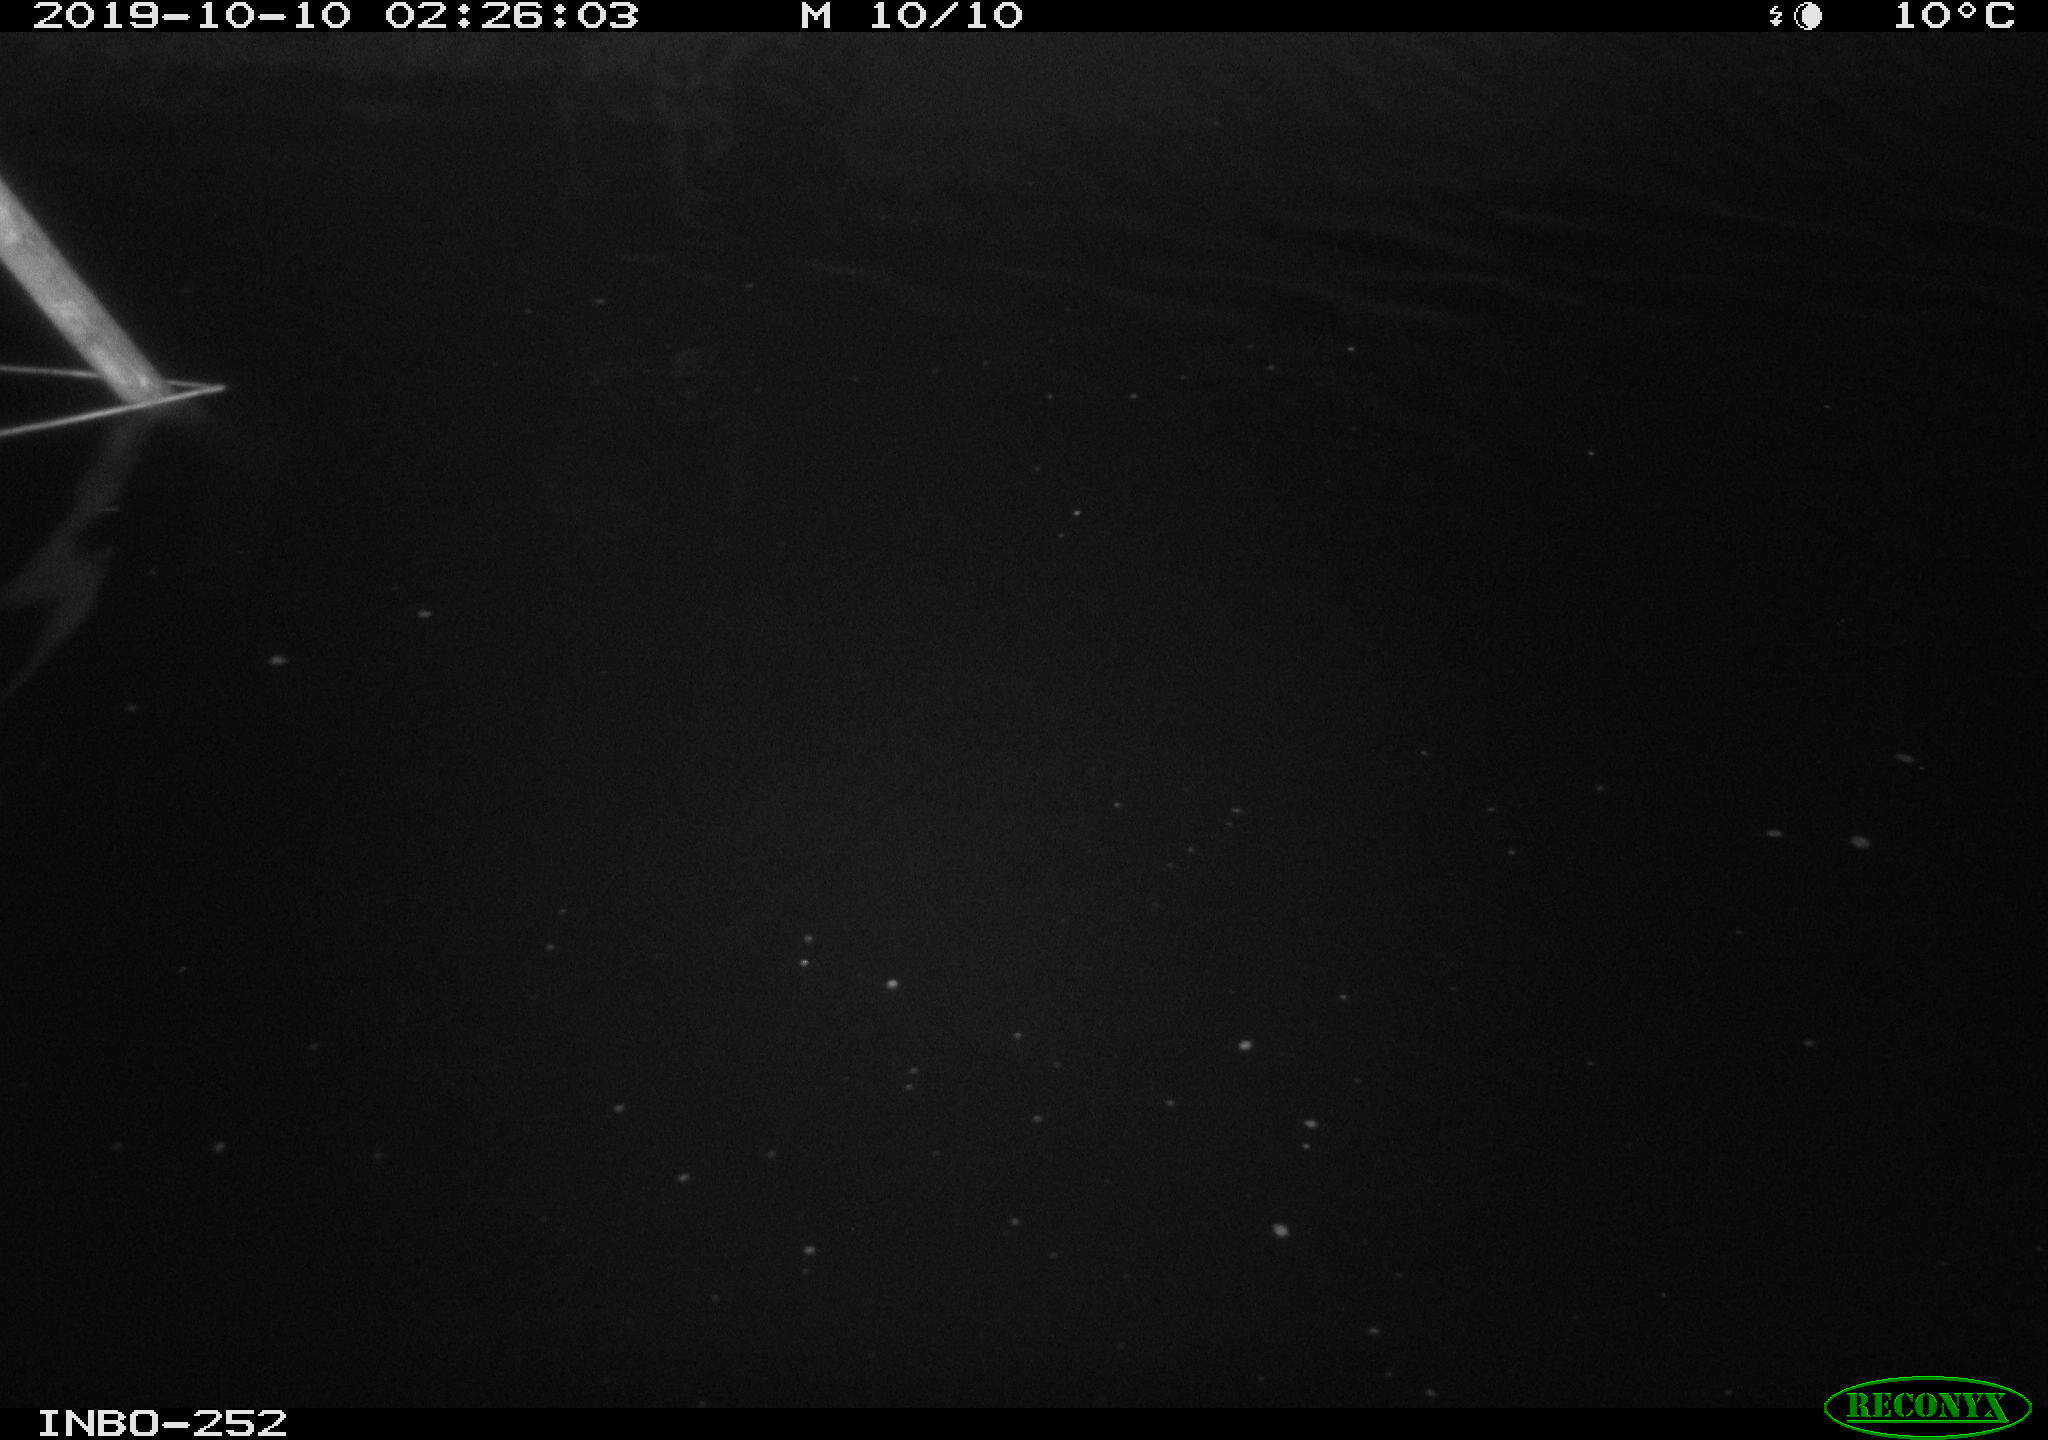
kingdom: Animalia
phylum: Chordata
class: Aves
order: Anseriformes
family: Anatidae
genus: Anas
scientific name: Anas platyrhynchos
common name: Mallard
